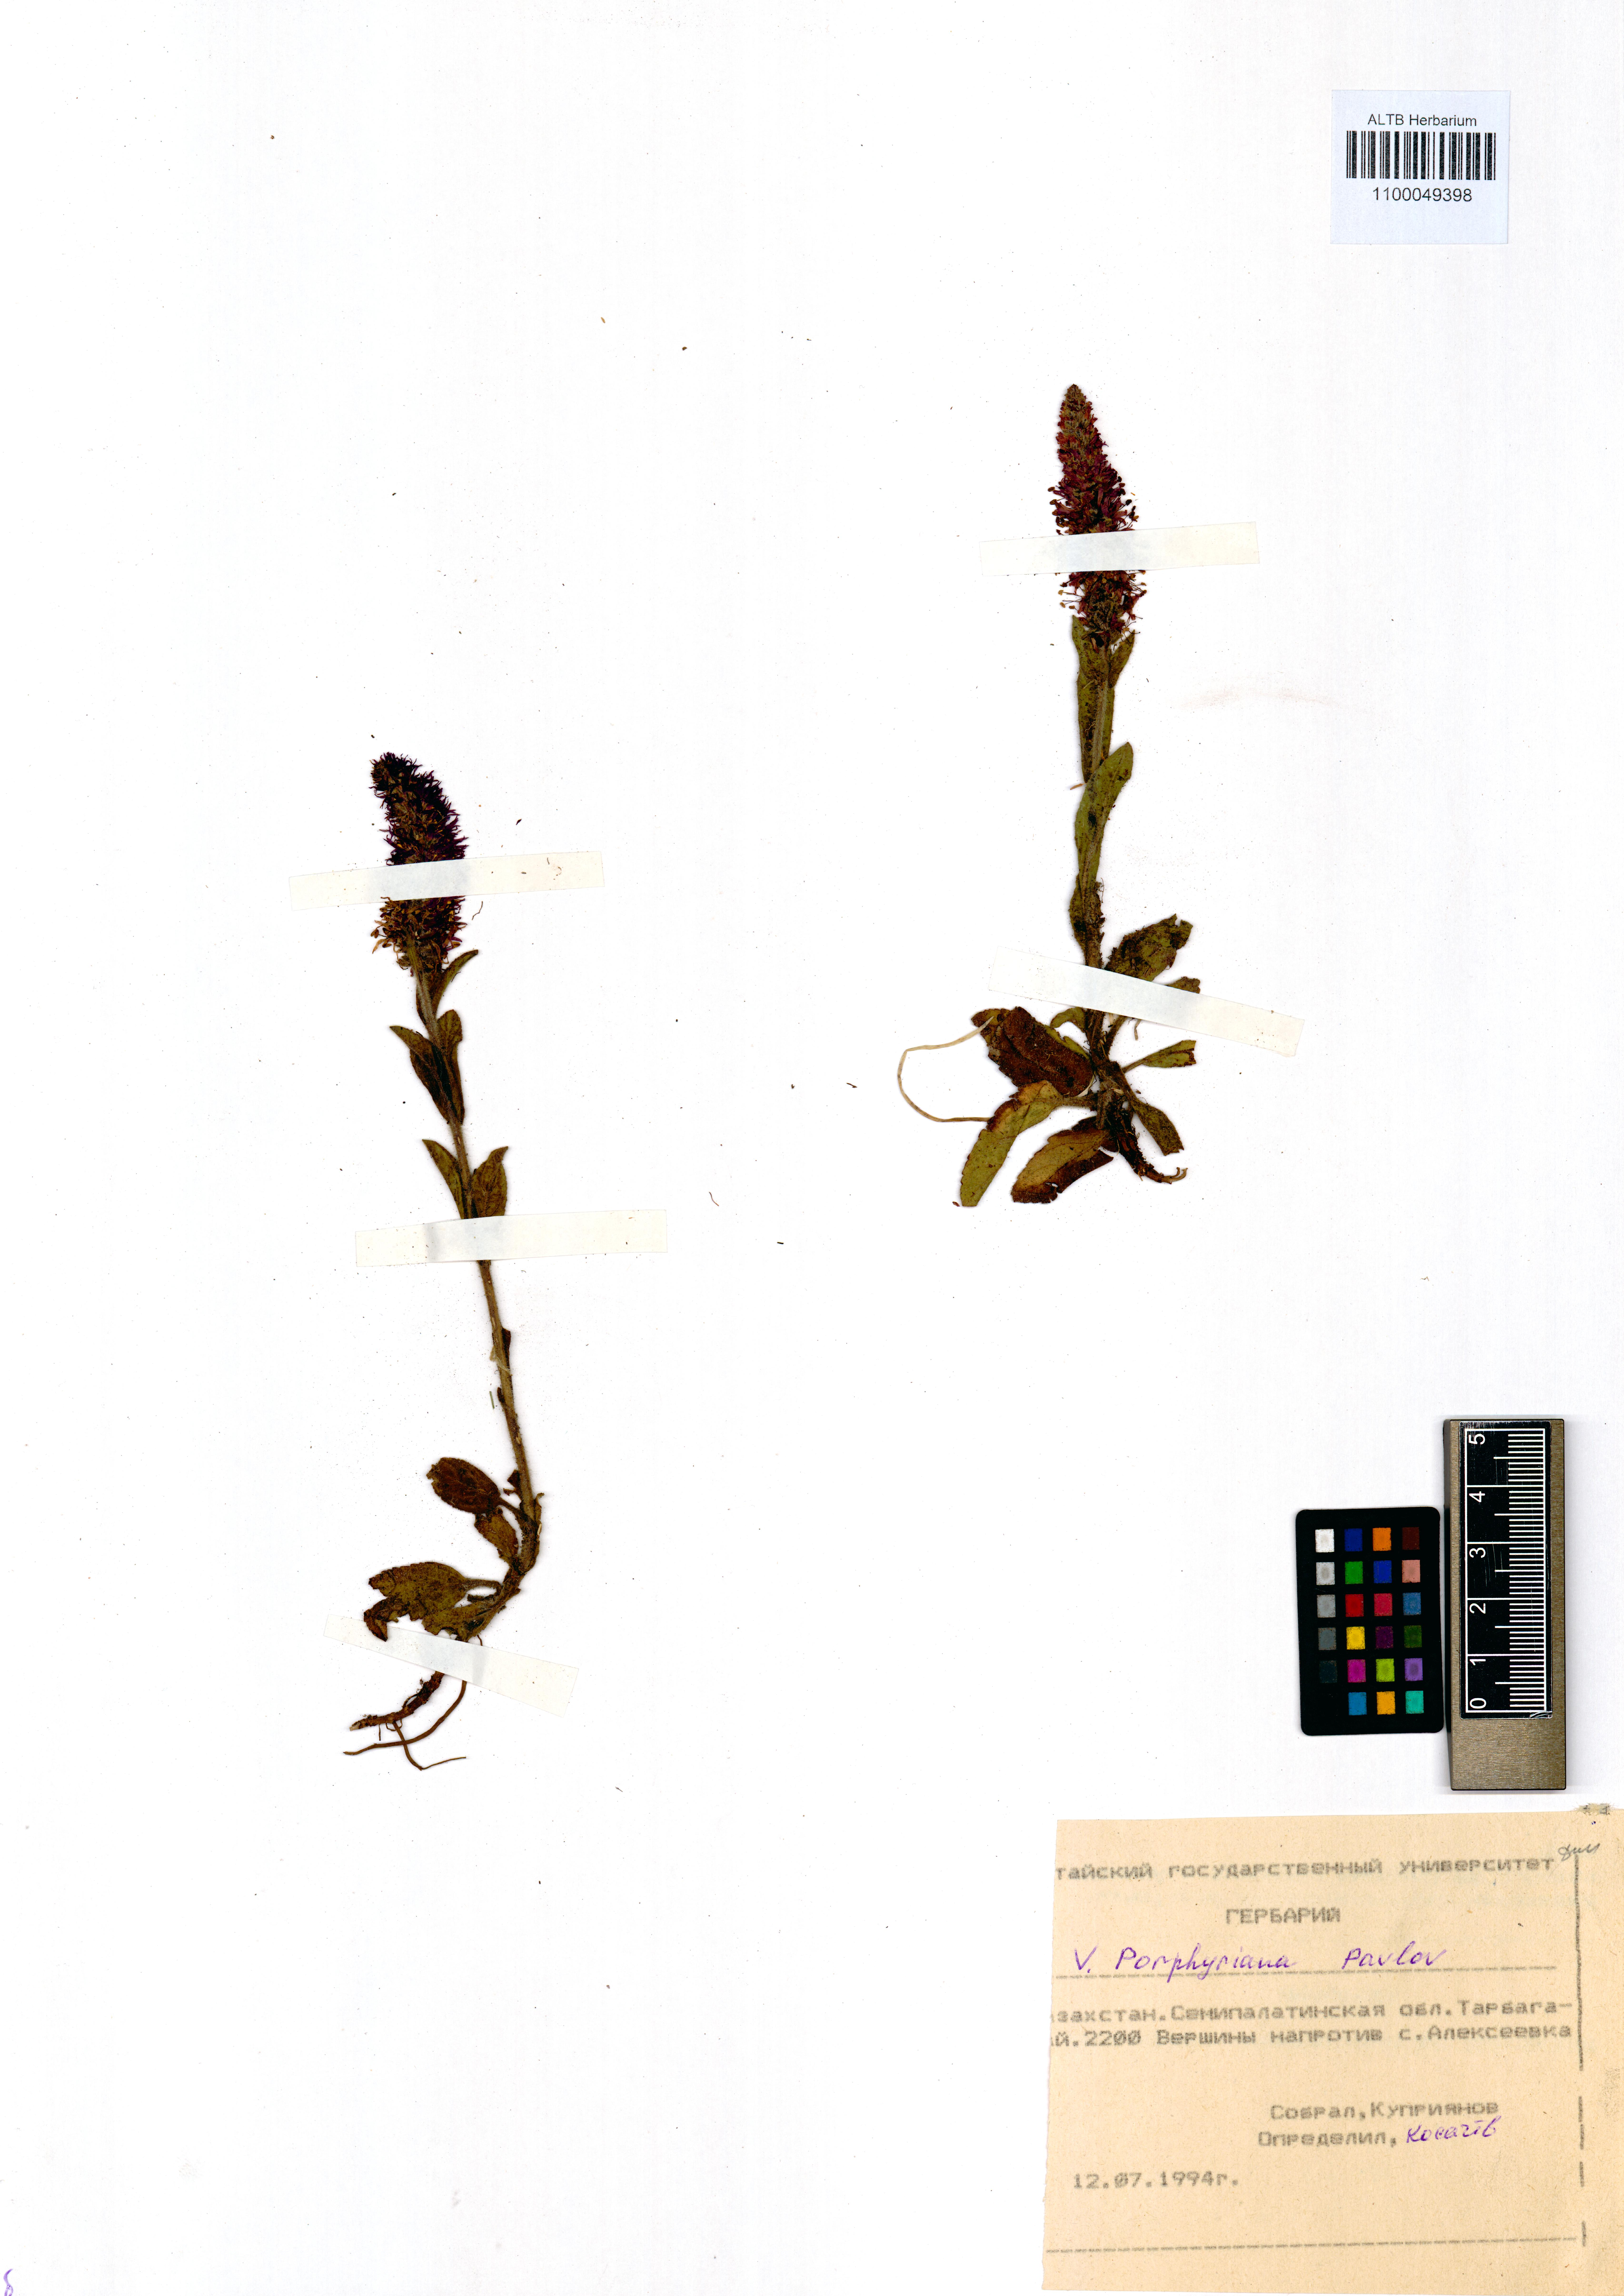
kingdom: Plantae
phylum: Tracheophyta
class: Magnoliopsida
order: Lamiales
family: Plantaginaceae
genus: Veronica
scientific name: Veronica porphyriana
